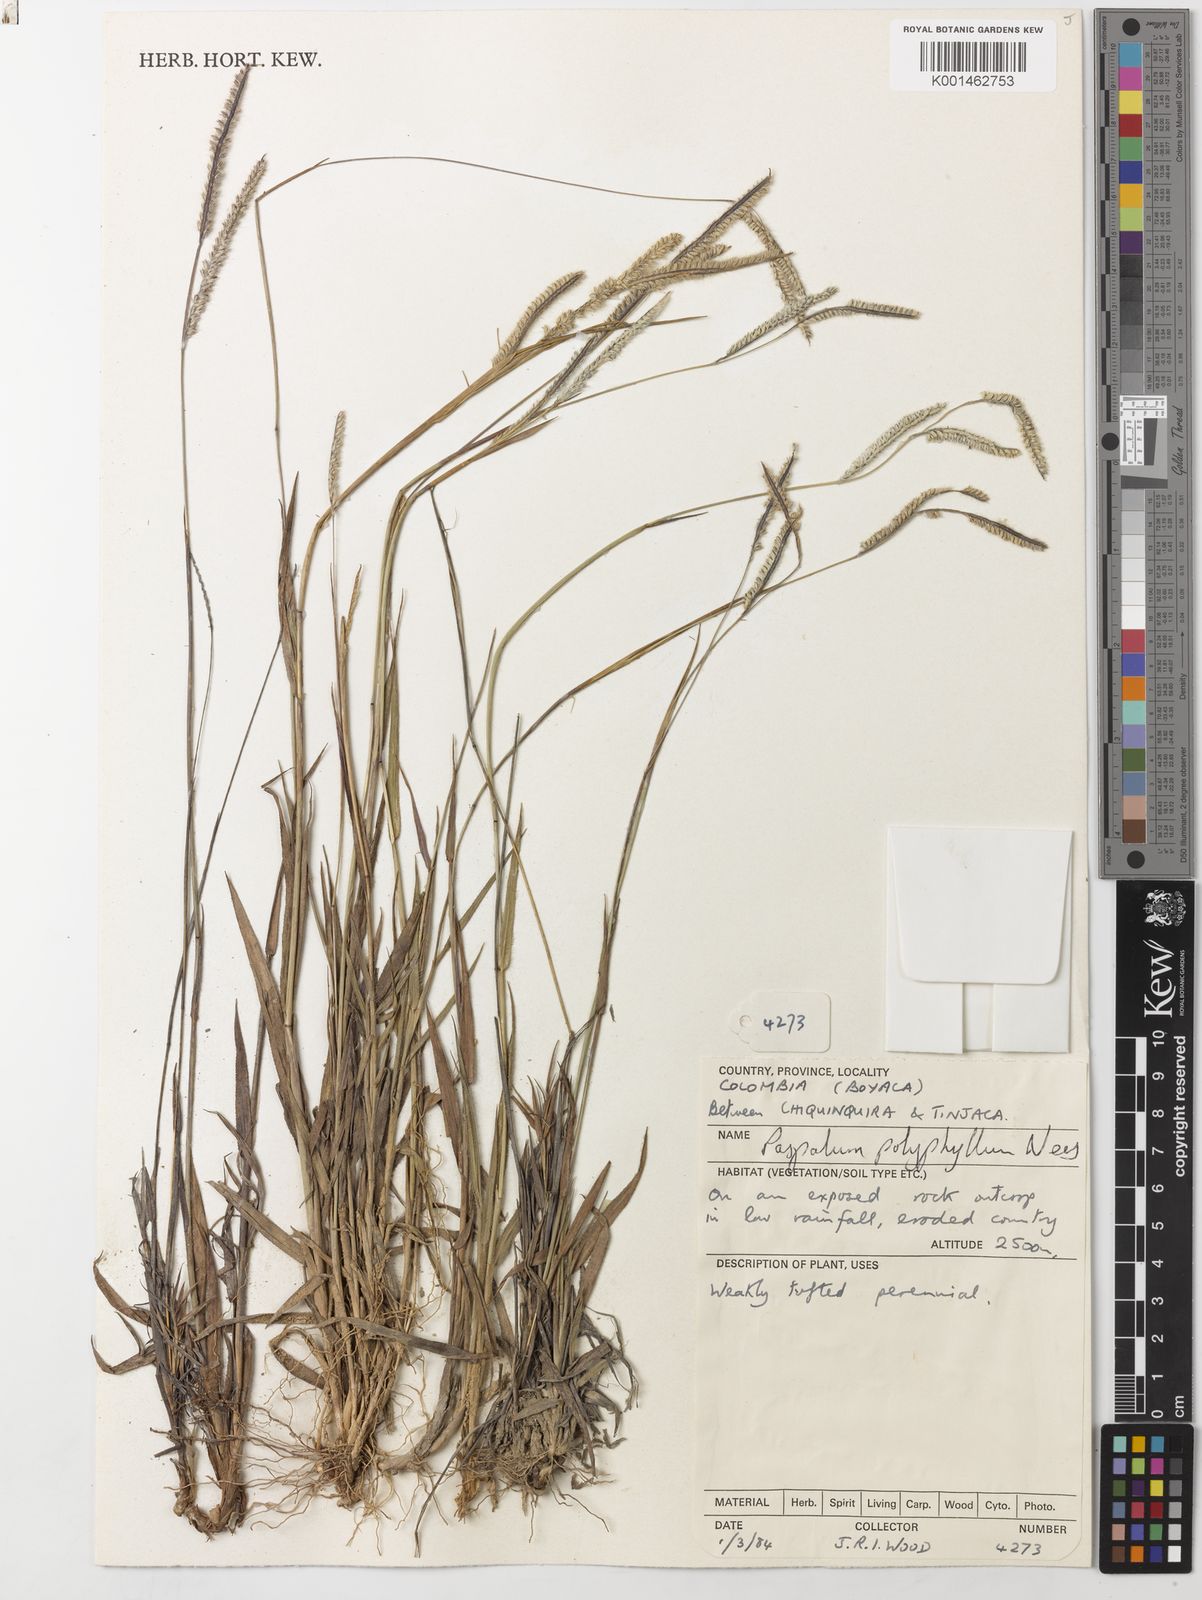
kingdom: Plantae
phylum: Tracheophyta
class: Liliopsida
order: Poales
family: Poaceae
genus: Paspalum
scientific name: Paspalum polyphyllum
